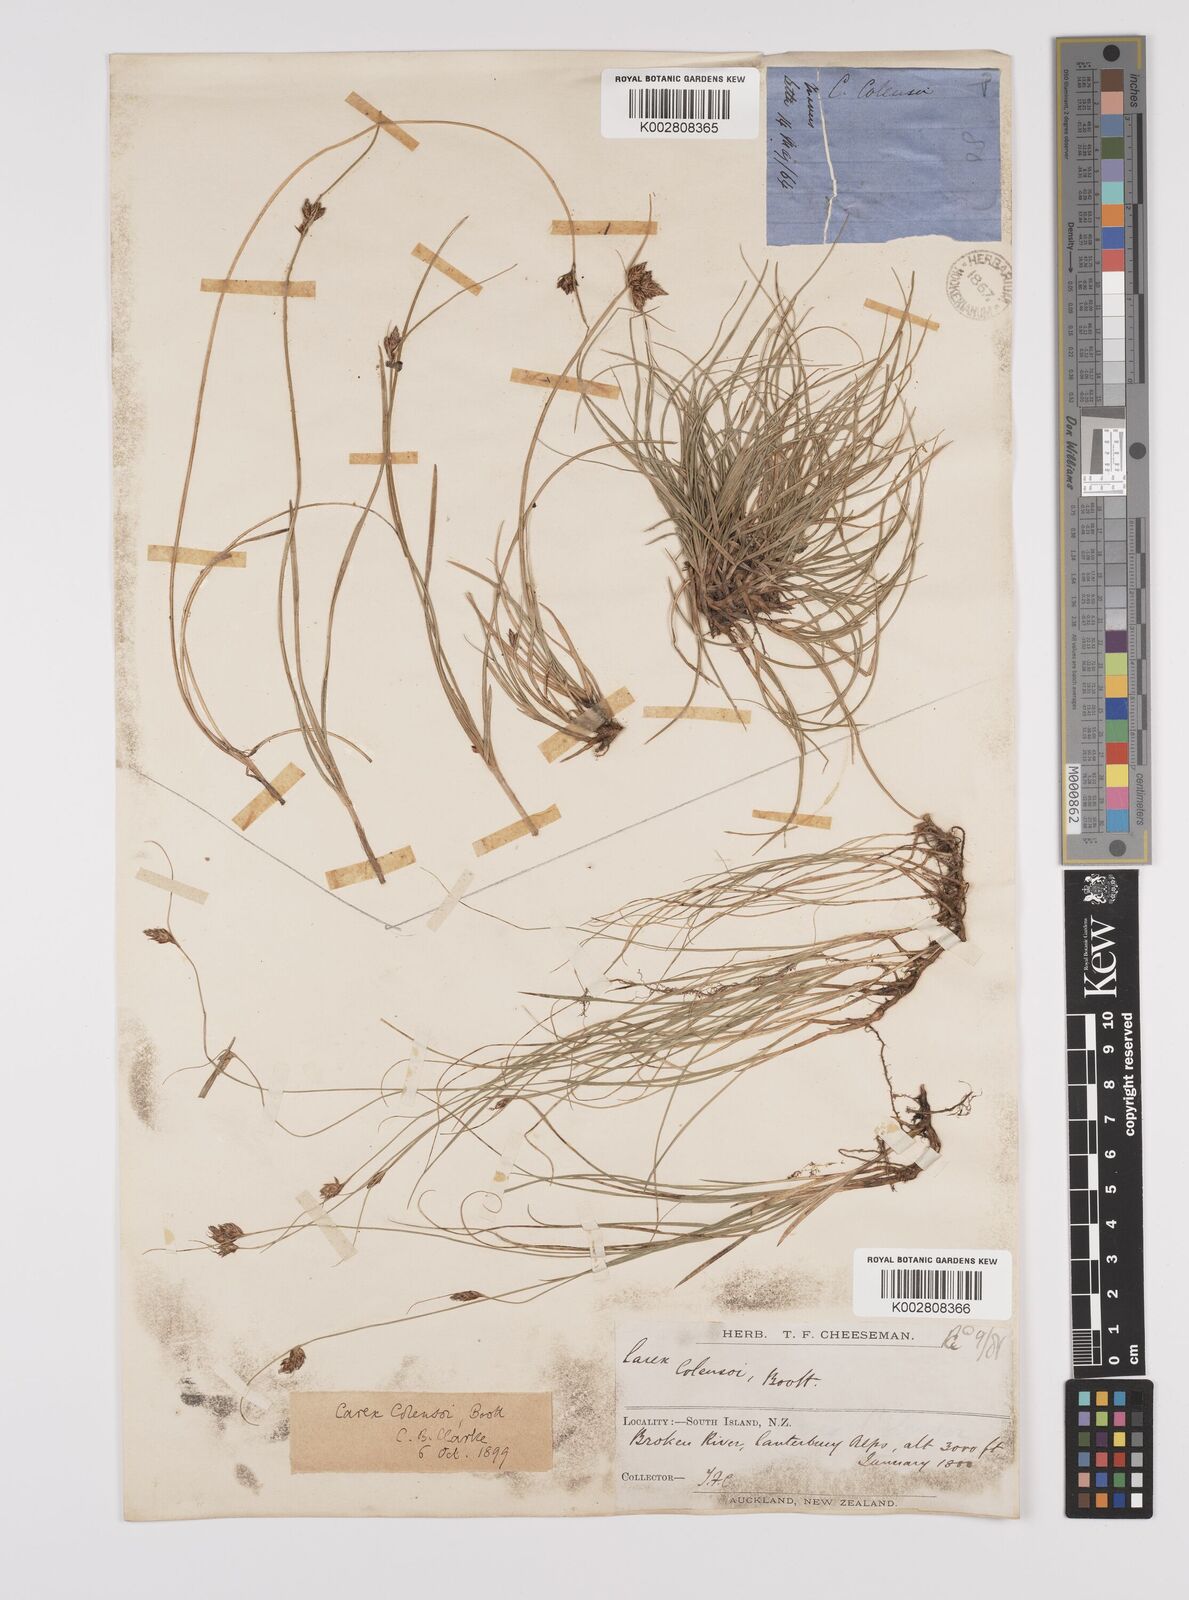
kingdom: Plantae
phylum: Tracheophyta
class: Liliopsida
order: Poales
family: Cyperaceae
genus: Carex
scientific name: Carex colensoi
